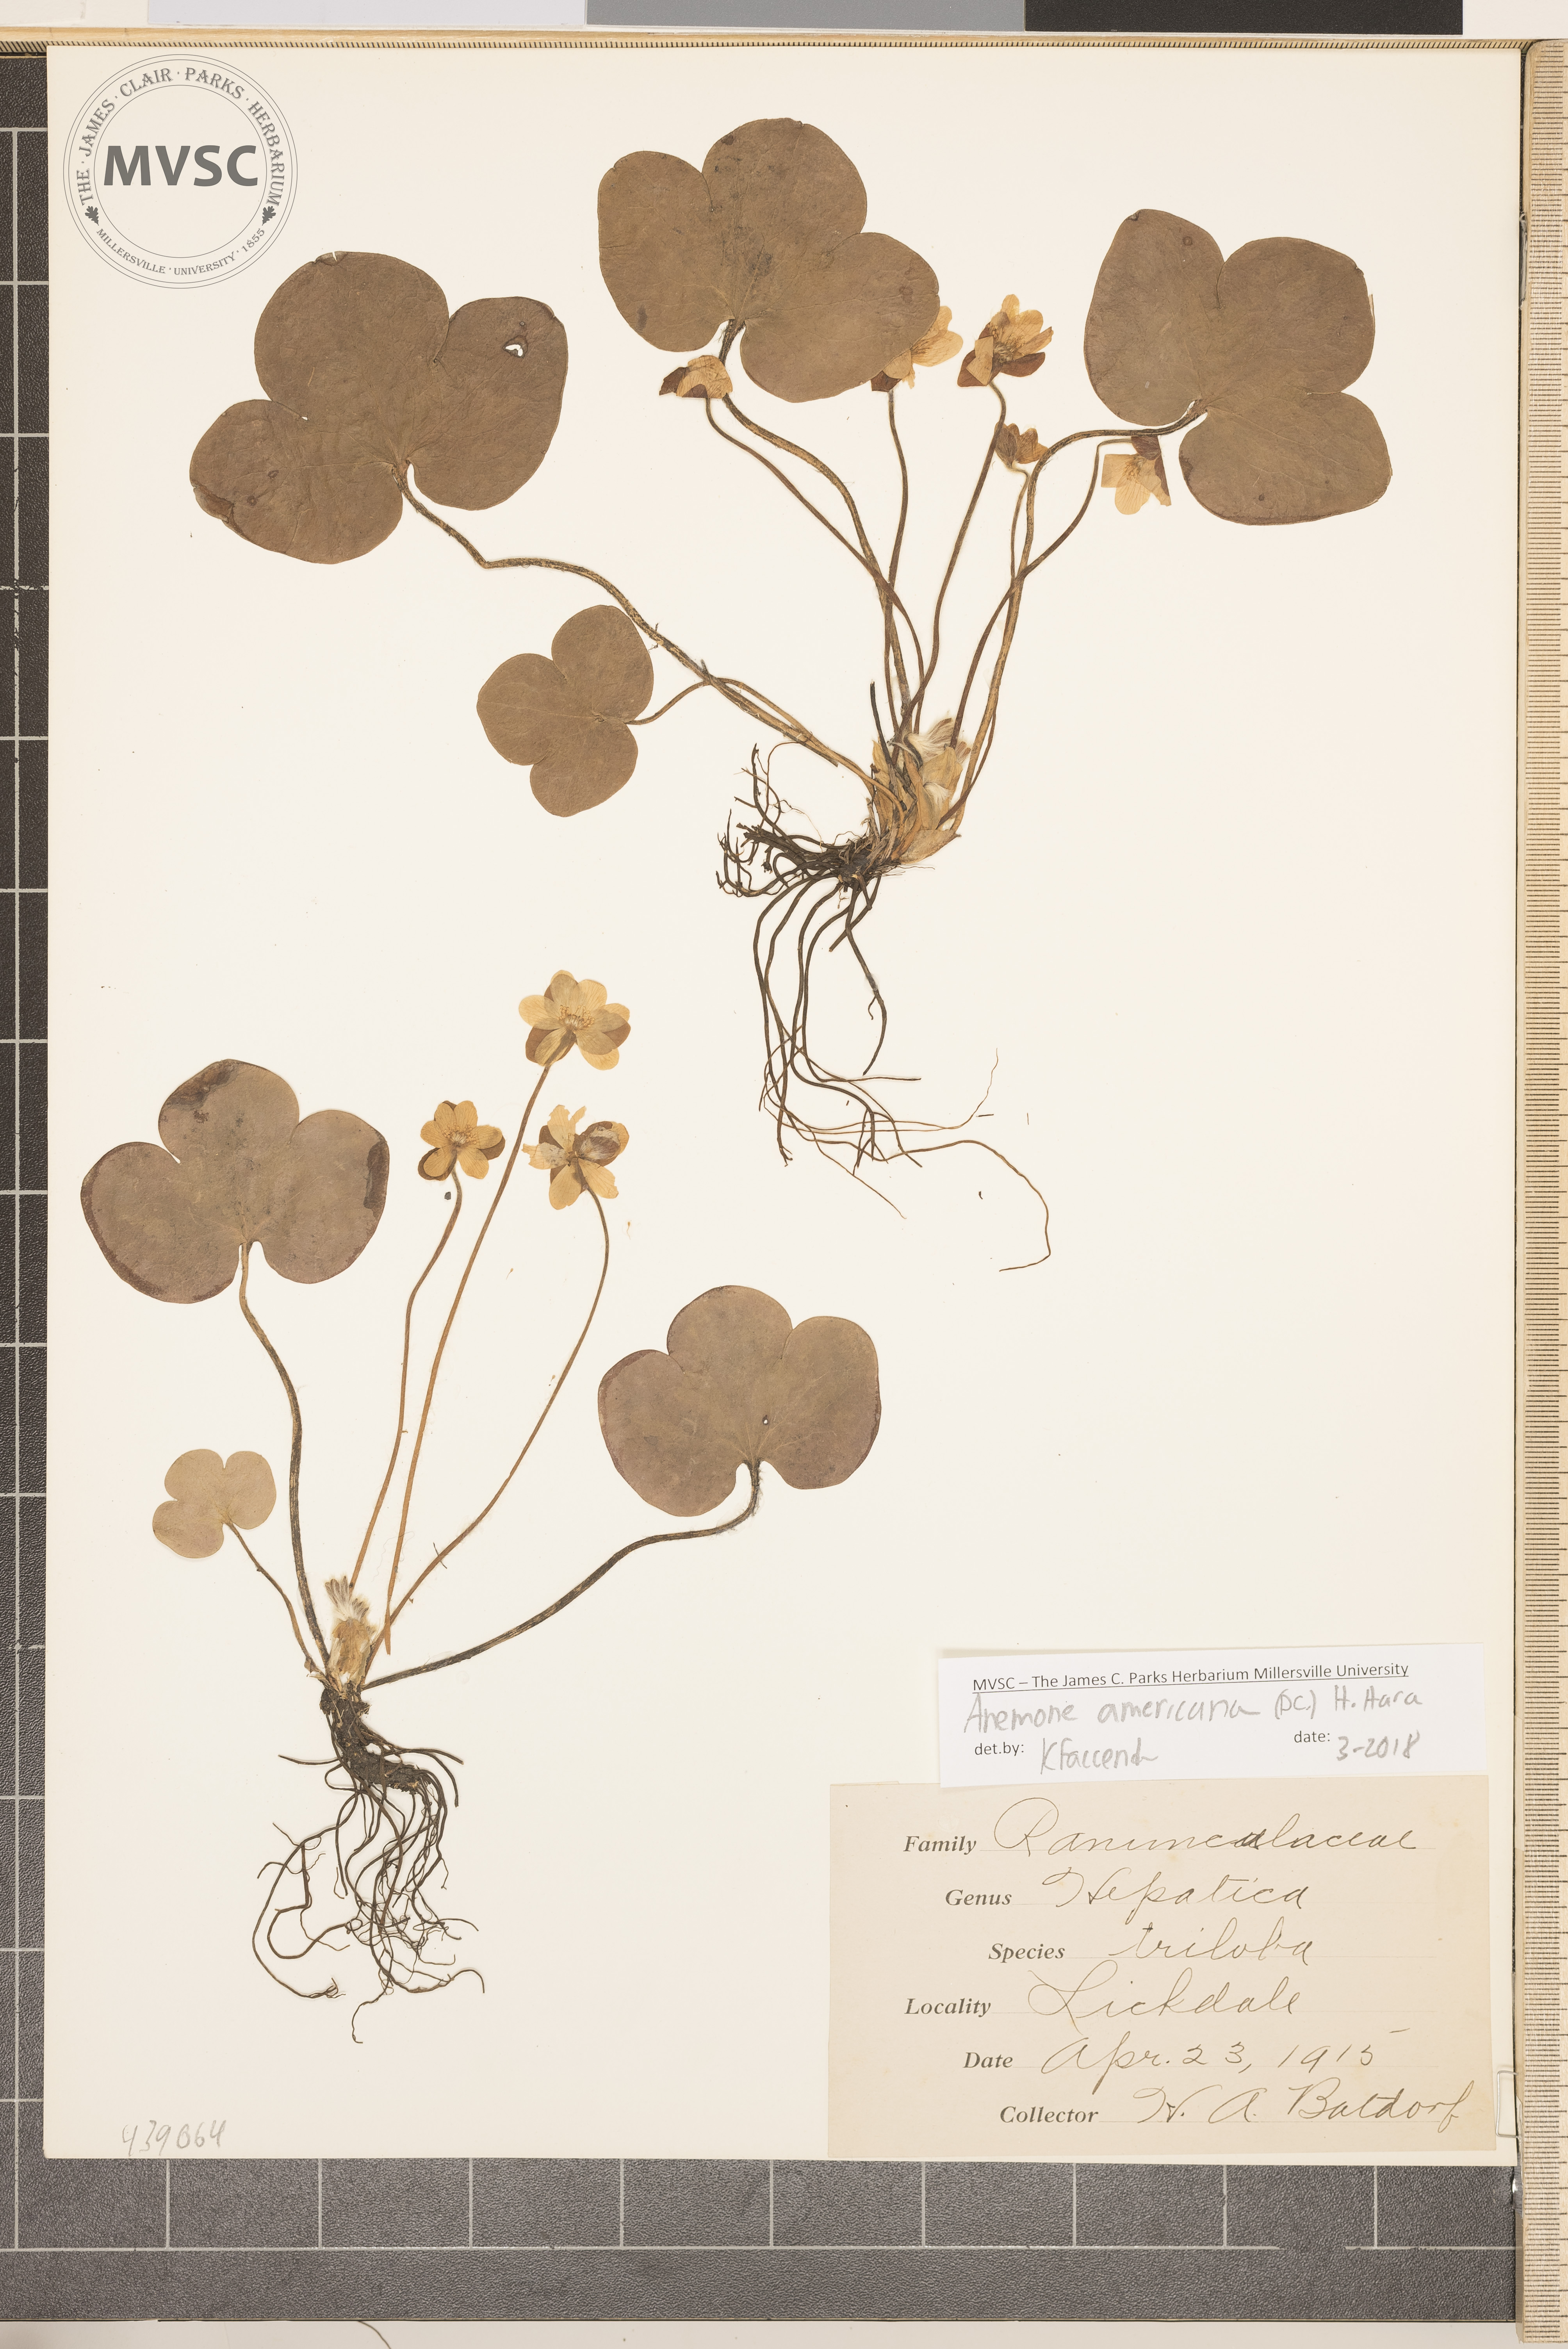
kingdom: Plantae
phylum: Tracheophyta
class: Magnoliopsida
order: Ranunculales
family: Ranunculaceae
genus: Hepatica
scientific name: Hepatica americana
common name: American hepatica
